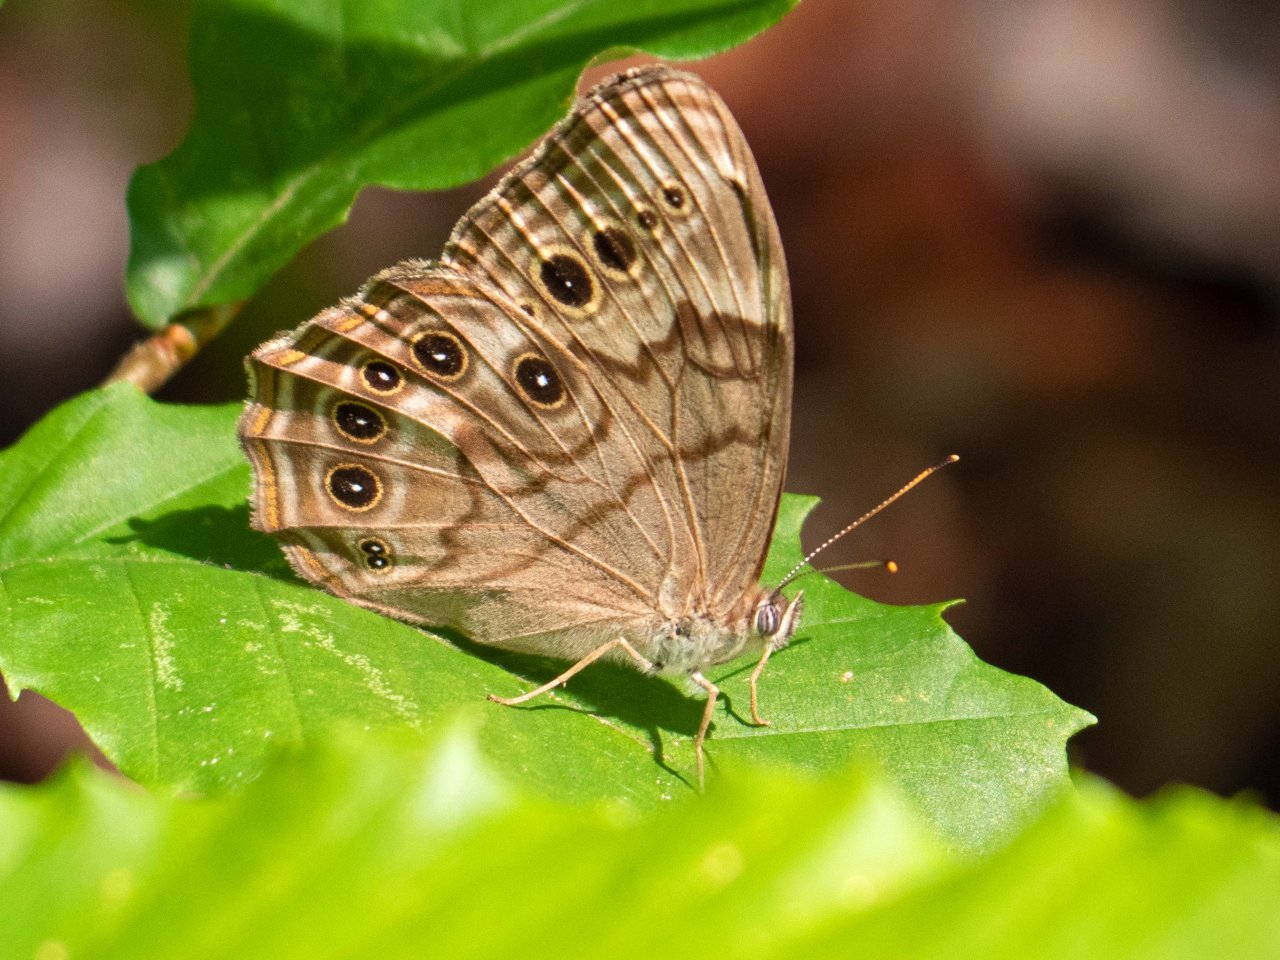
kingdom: Animalia
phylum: Arthropoda
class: Insecta
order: Lepidoptera
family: Nymphalidae
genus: Lethe
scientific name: Lethe anthedon
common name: Northern Pearly-Eye
